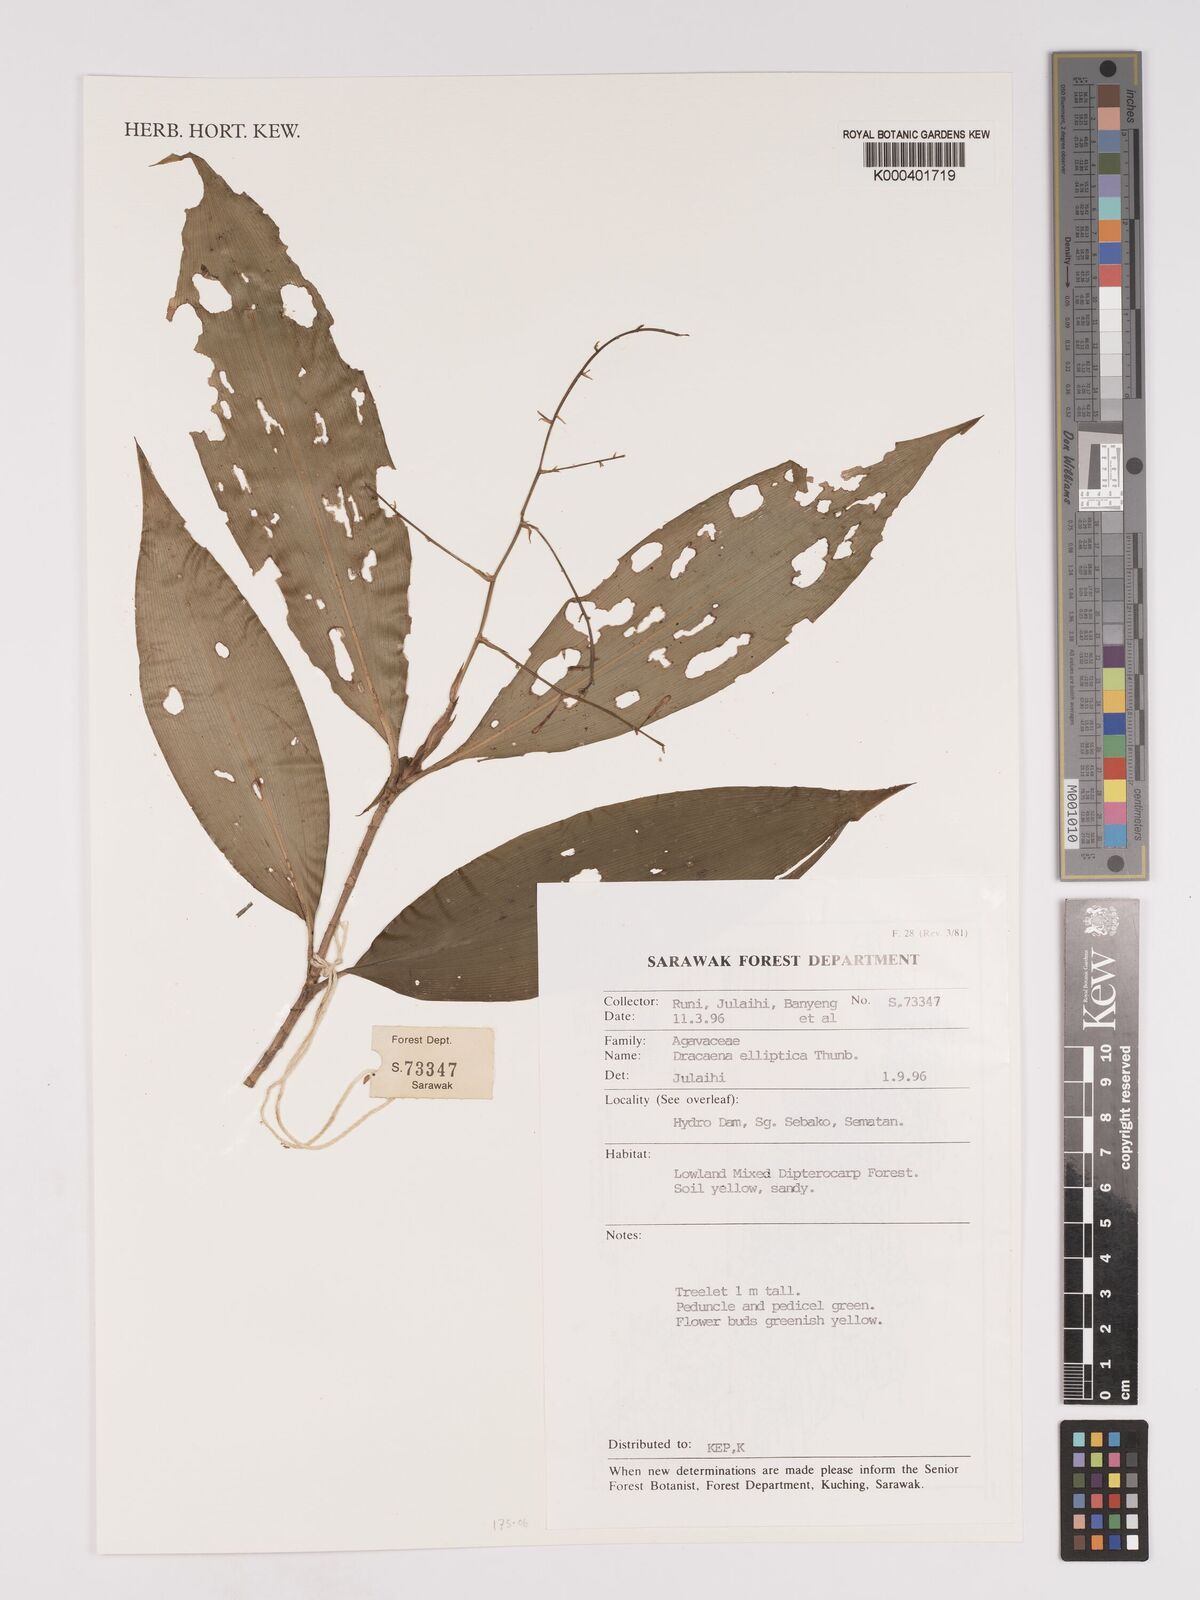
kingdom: Plantae
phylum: Tracheophyta
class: Liliopsida
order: Asparagales
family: Asparagaceae
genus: Dracaena
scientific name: Dracaena elliptica
